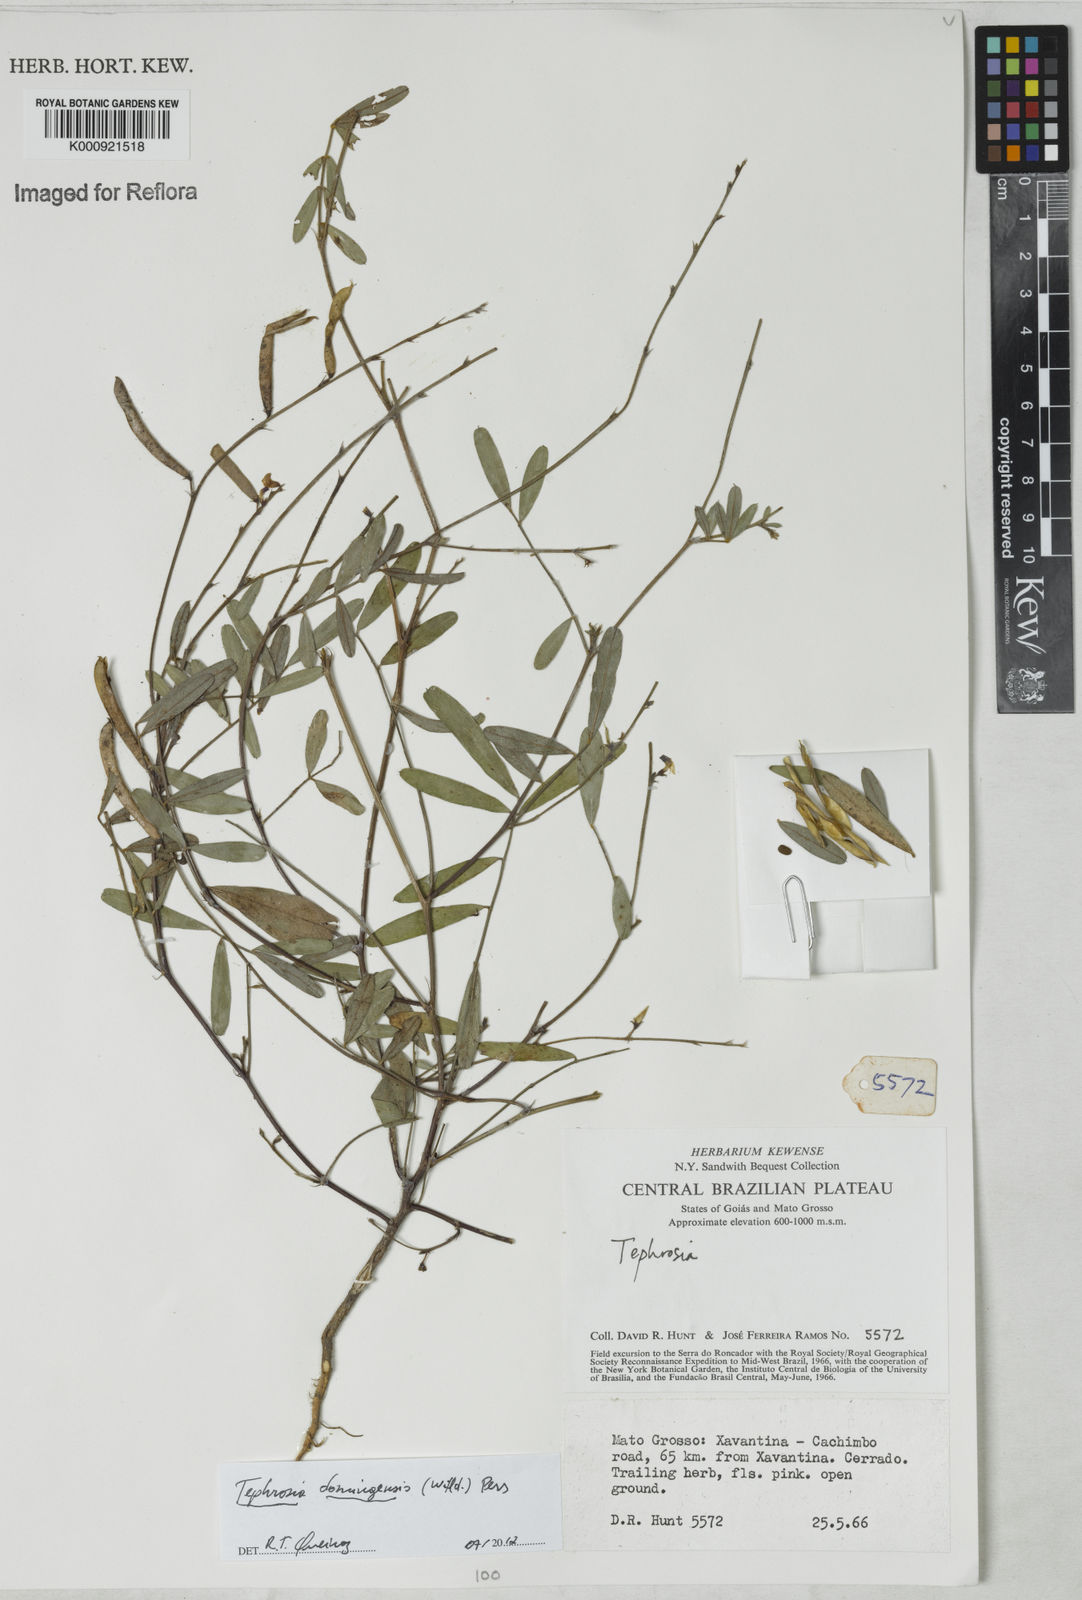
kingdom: Plantae
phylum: Tracheophyta
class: Magnoliopsida
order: Fabales
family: Fabaceae
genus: Tephrosia
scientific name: Tephrosia domingensis
